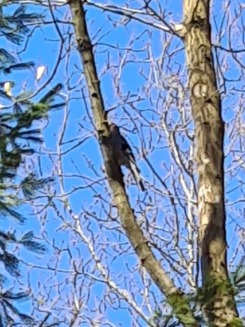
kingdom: Animalia
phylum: Chordata
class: Aves
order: Passeriformes
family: Corvidae
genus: Garrulus
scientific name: Garrulus glandarius
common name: Skovskade
